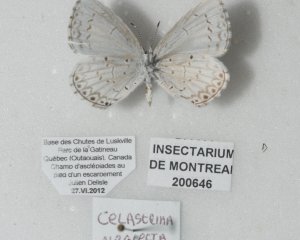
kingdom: Animalia
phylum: Arthropoda
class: Insecta
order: Lepidoptera
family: Lycaenidae
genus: Cyaniris
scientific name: Cyaniris neglecta
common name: Summer Azure
